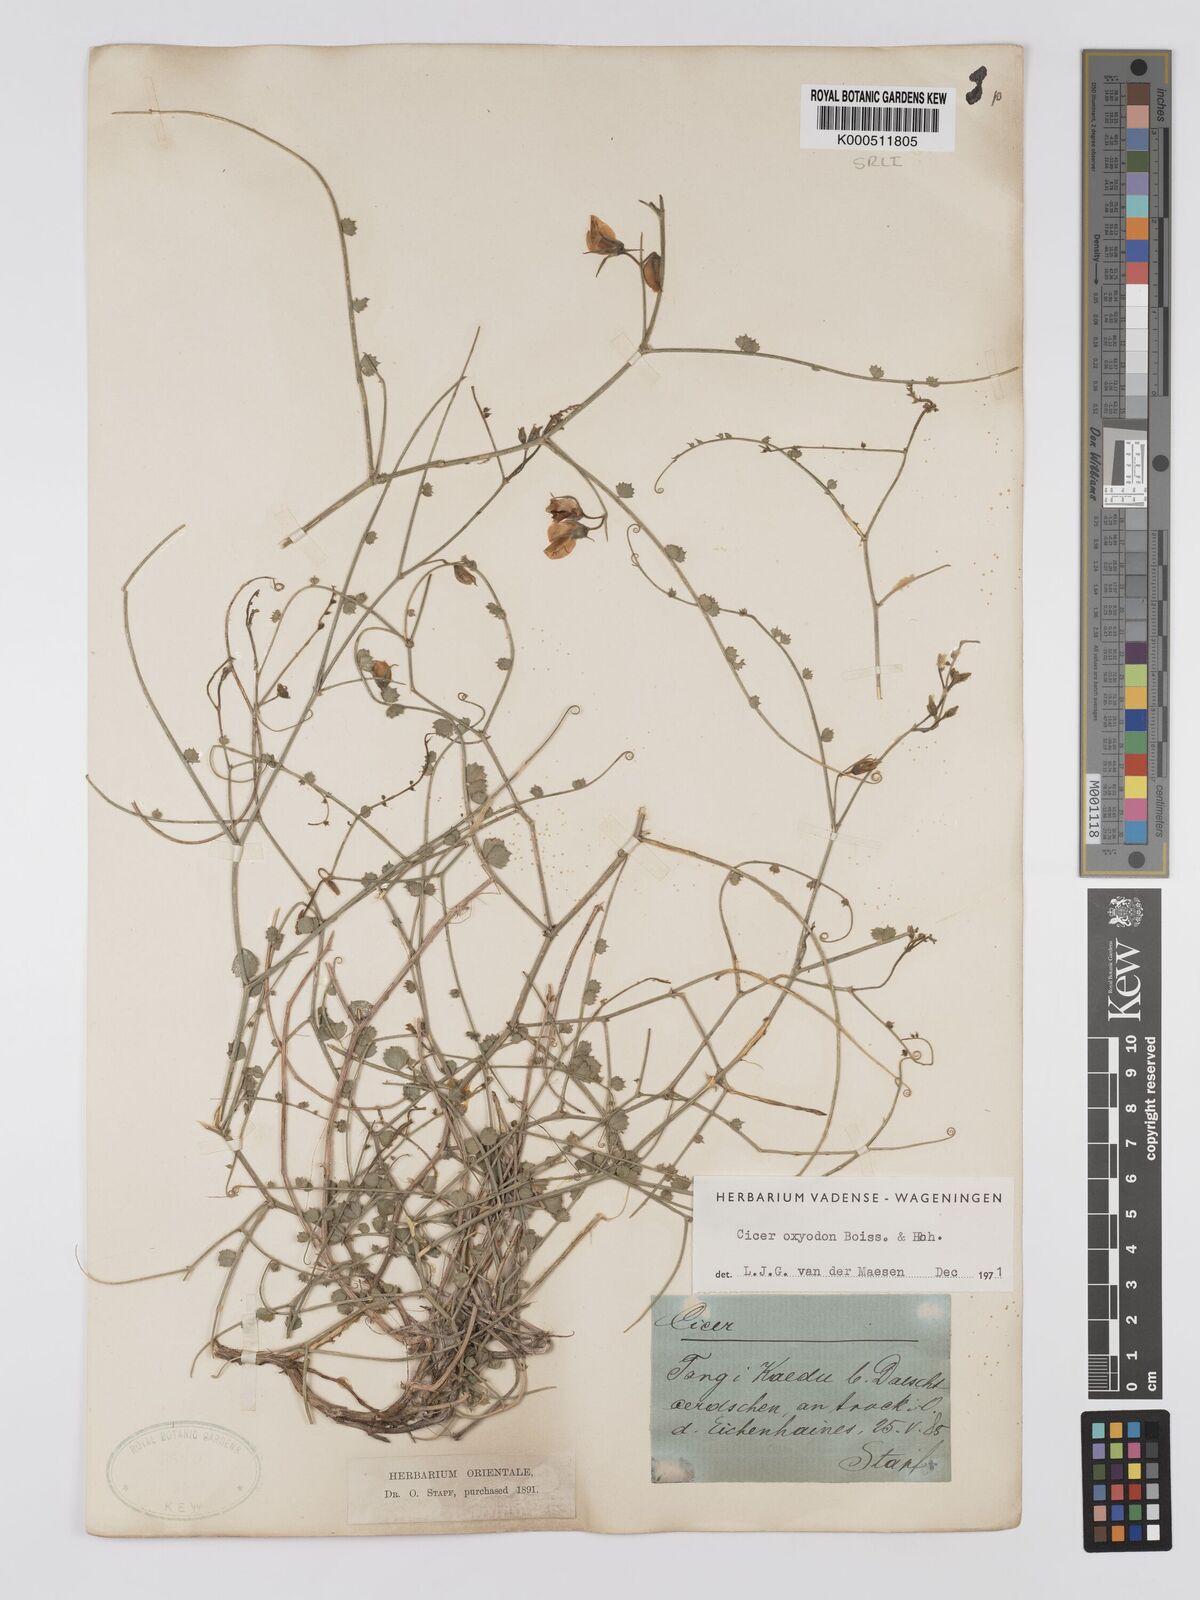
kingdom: Plantae
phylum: Tracheophyta
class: Magnoliopsida
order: Fabales
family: Fabaceae
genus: Cicer
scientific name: Cicer oxyodon
